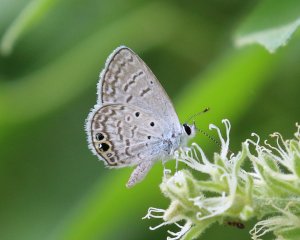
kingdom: Animalia
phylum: Arthropoda
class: Insecta
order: Lepidoptera
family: Lycaenidae
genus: Hemiargus
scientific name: Hemiargus ceraunus
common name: Ceraunus Blue
